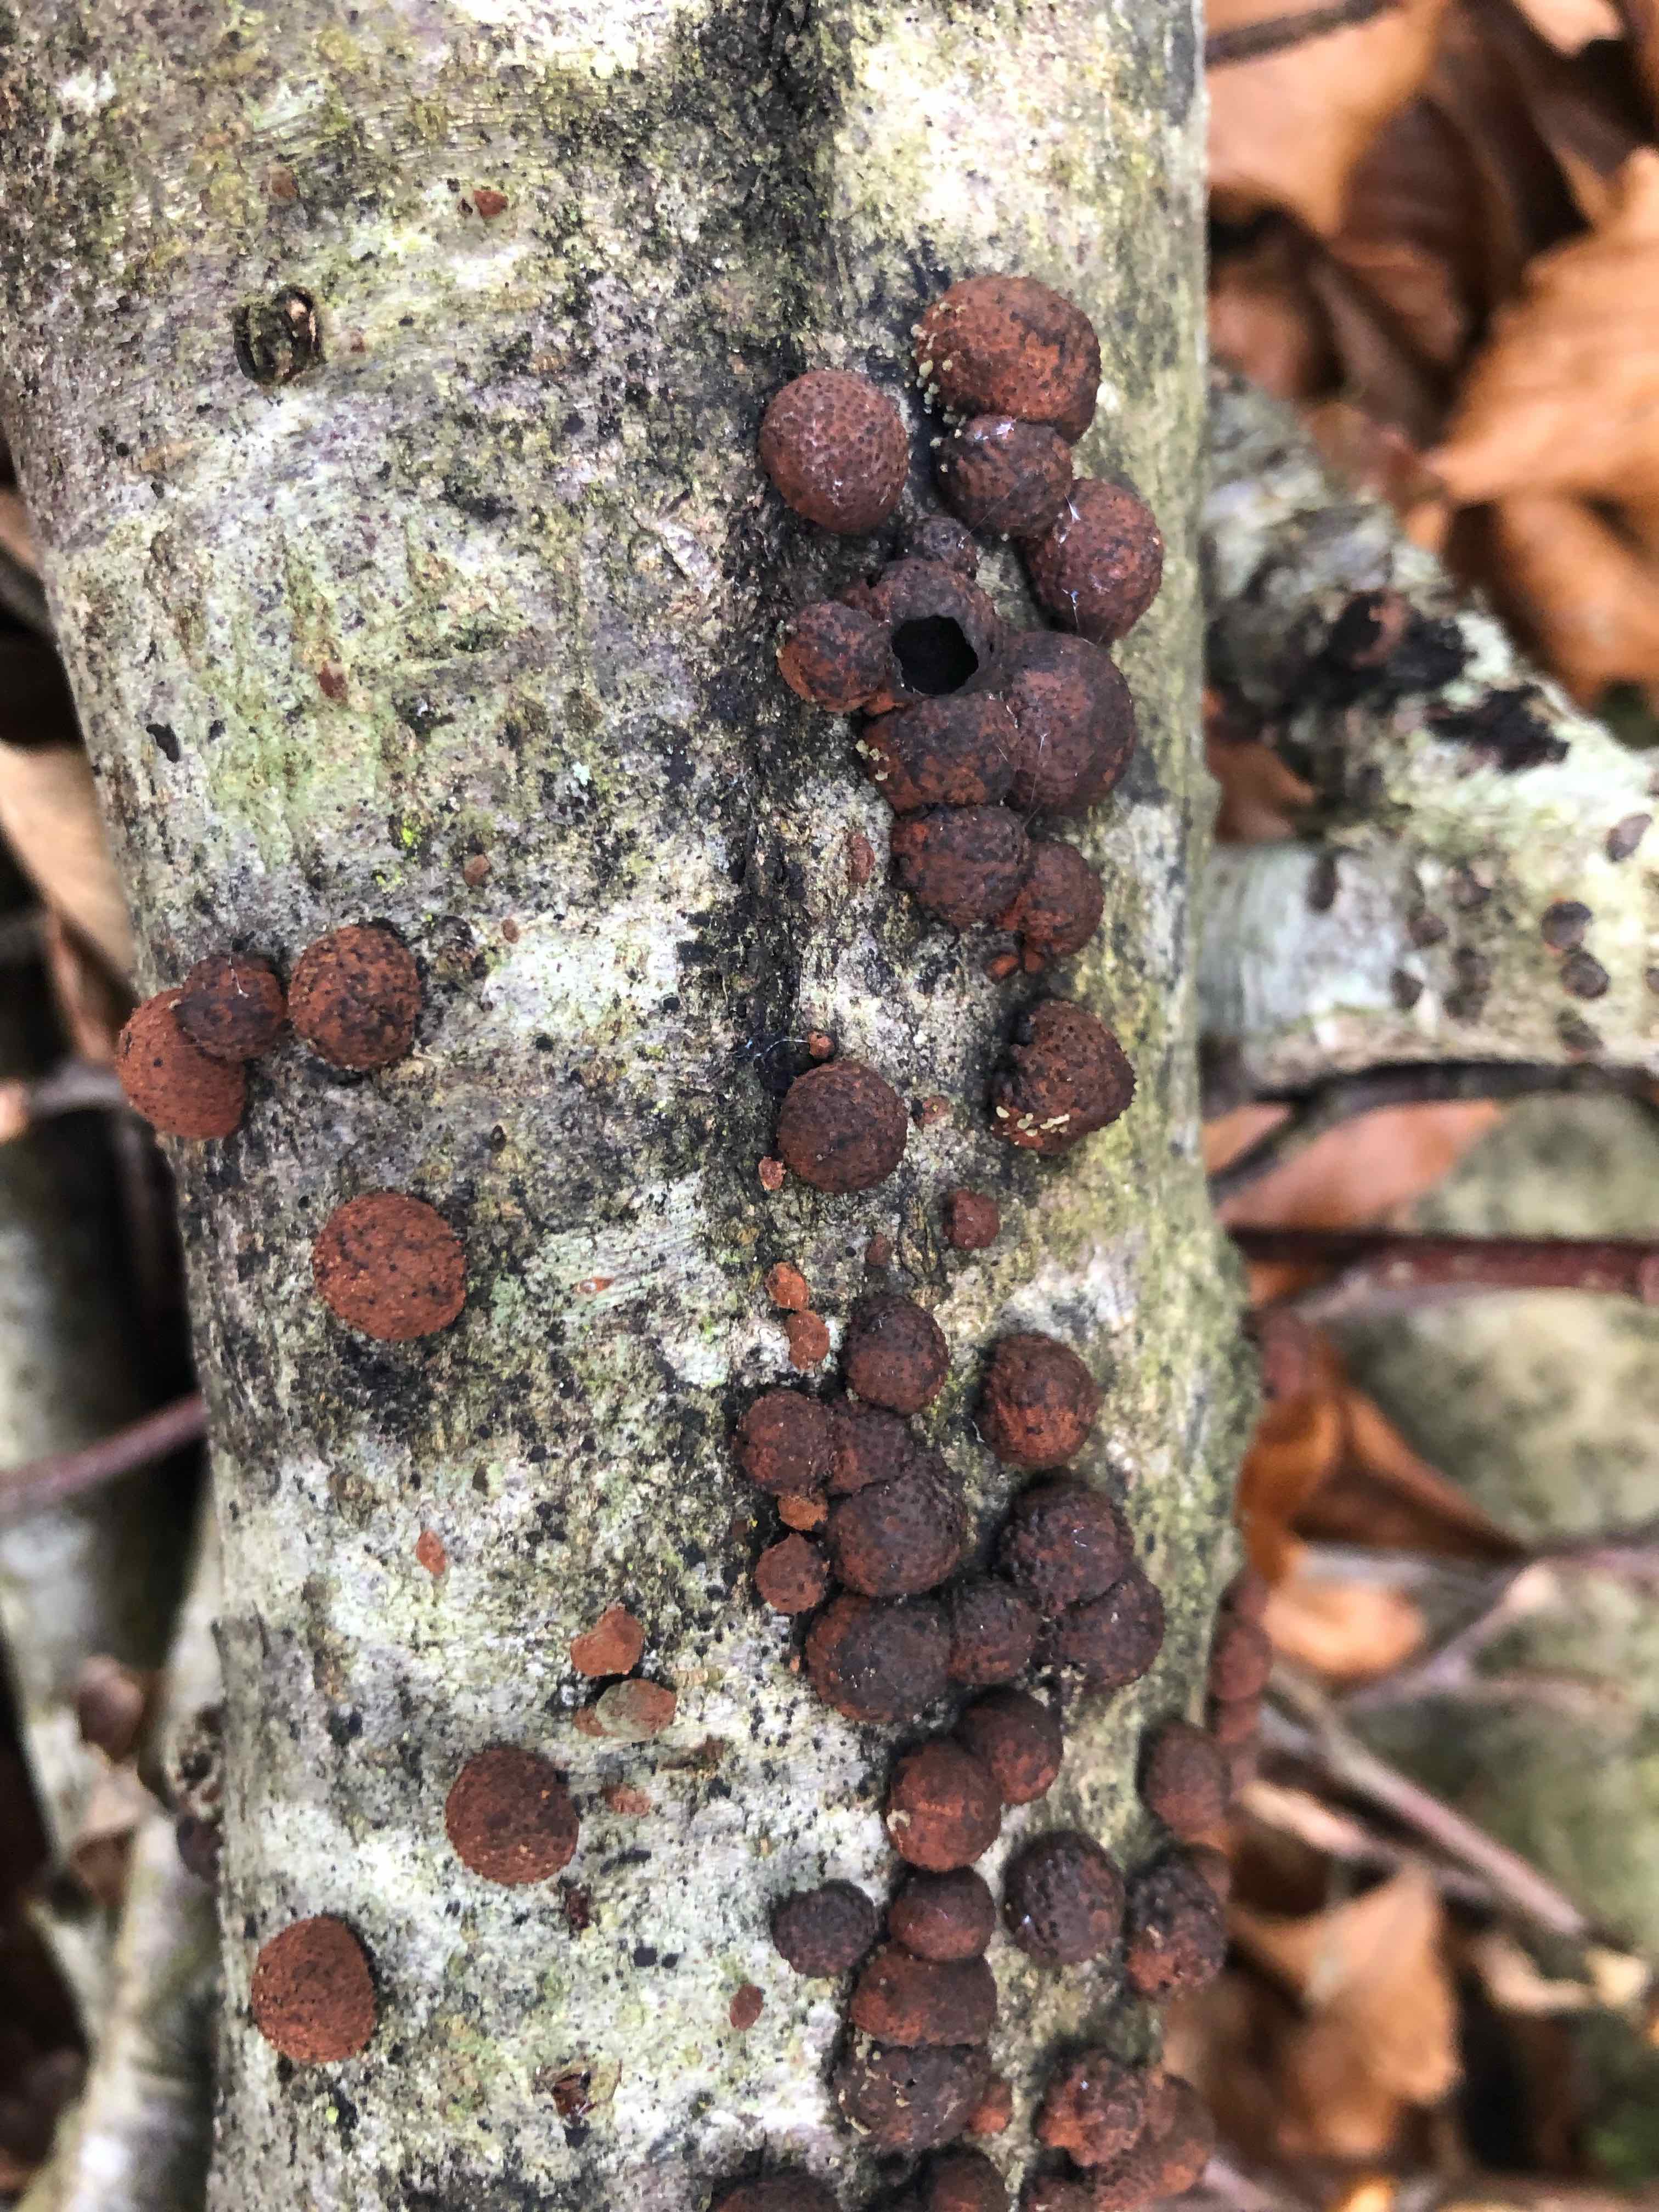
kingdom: Fungi
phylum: Ascomycota
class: Sordariomycetes
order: Xylariales
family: Hypoxylaceae
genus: Hypoxylon
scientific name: Hypoxylon fragiforme
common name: kuljordbær
